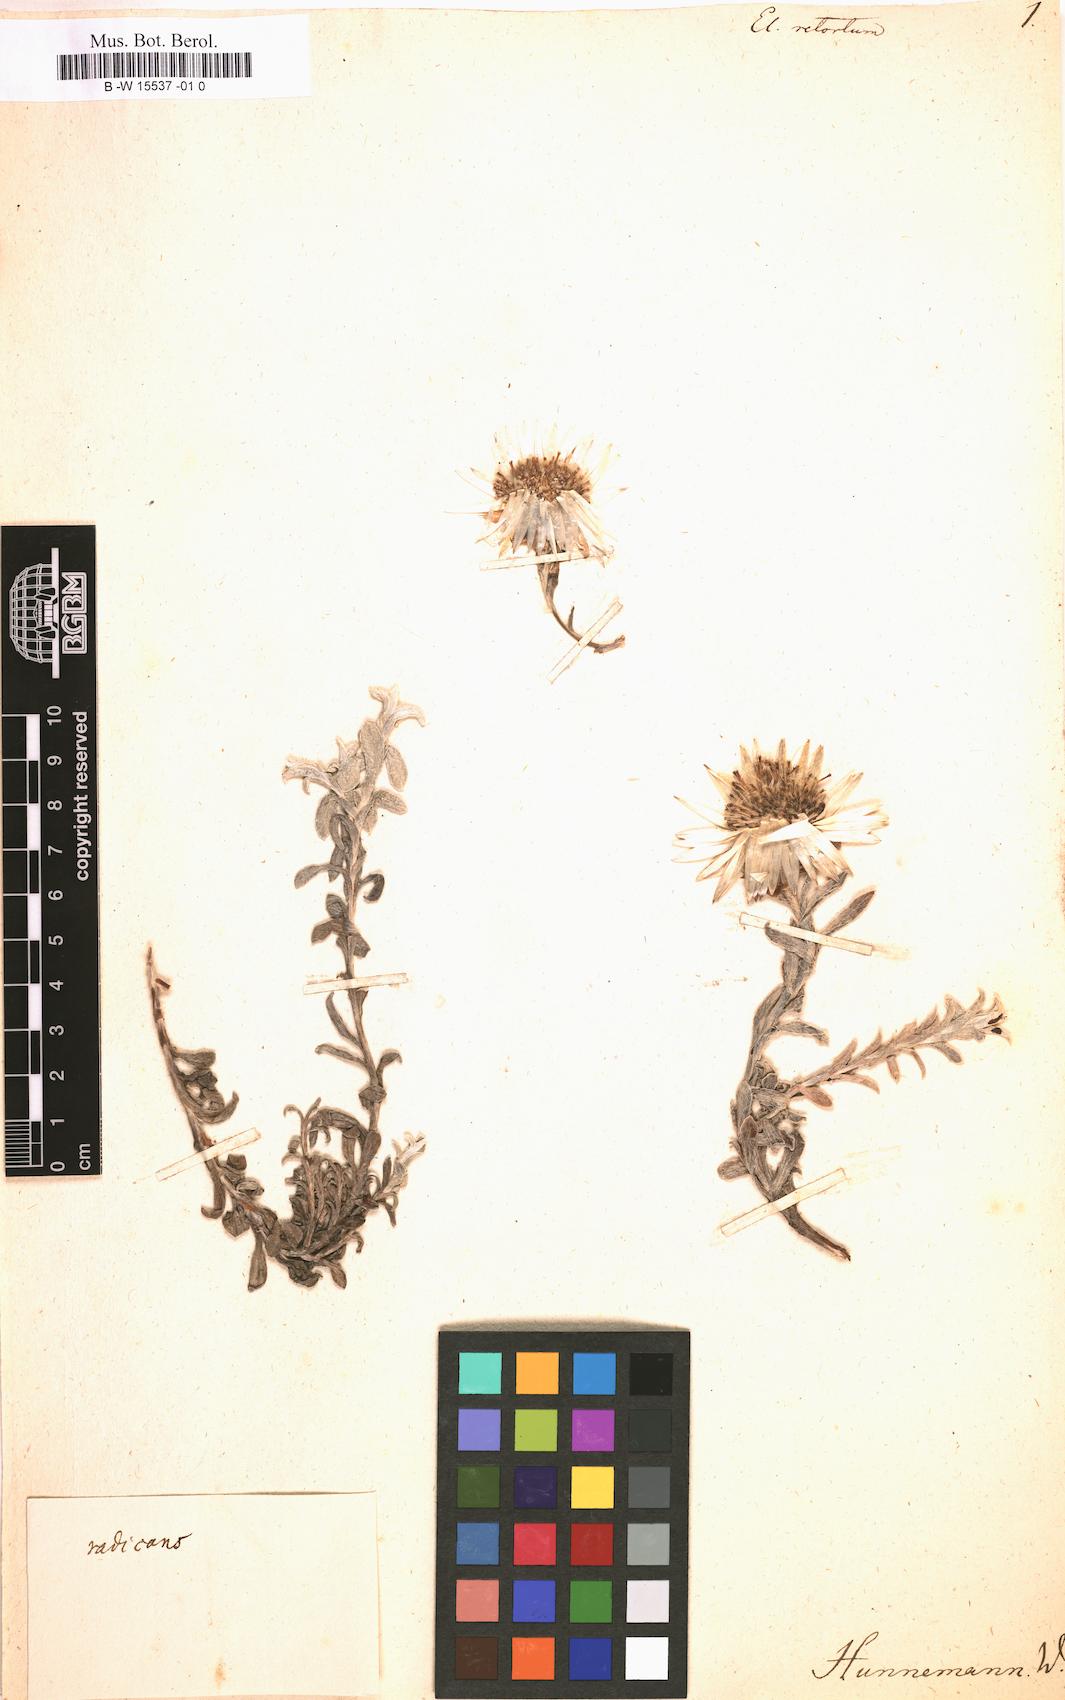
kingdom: Plantae
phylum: Tracheophyta
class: Magnoliopsida
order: Asterales
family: Asteraceae
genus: Helichrysum
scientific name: Helichrysum
